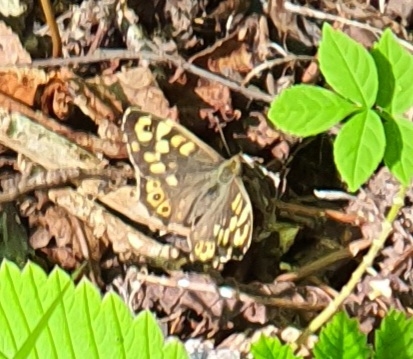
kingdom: Animalia
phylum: Arthropoda
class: Insecta
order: Lepidoptera
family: Nymphalidae
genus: Pararge
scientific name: Pararge aegeria
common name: Skovrandøje
